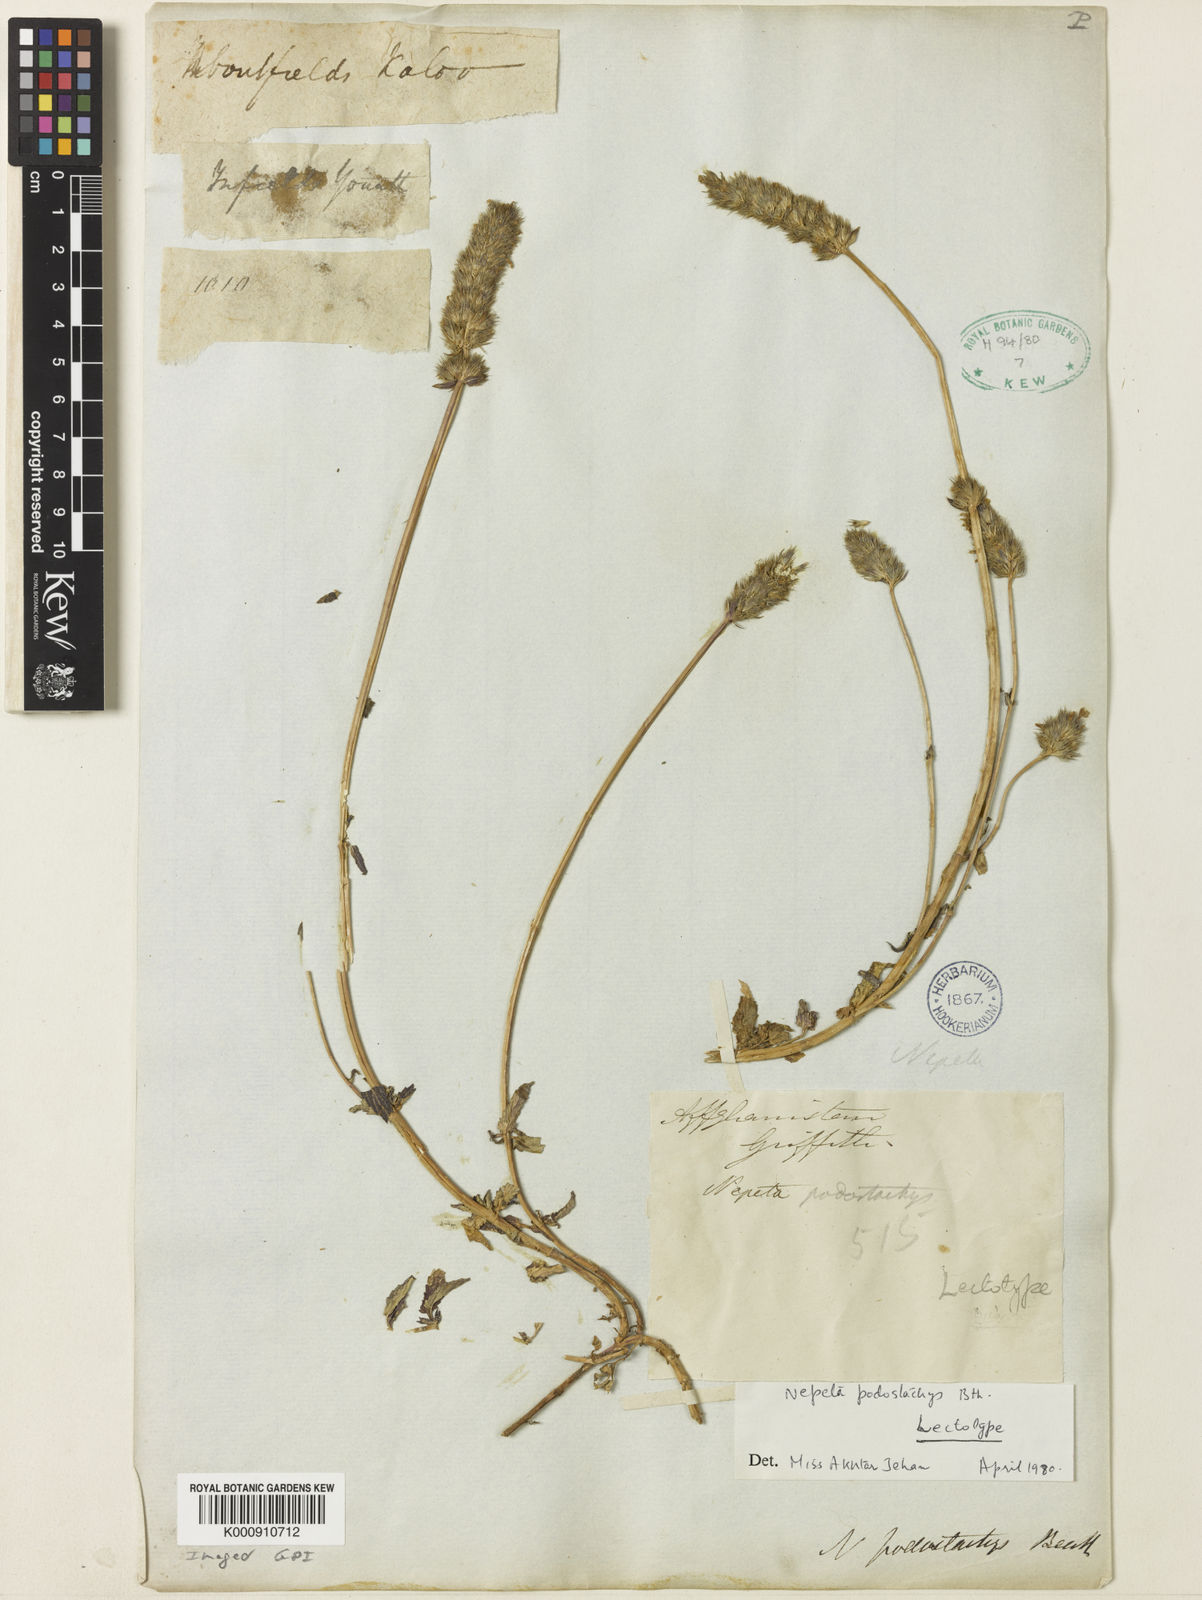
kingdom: Plantae
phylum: Tracheophyta
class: Magnoliopsida
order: Lamiales
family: Lamiaceae
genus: Nepeta
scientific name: Nepeta podostachys
